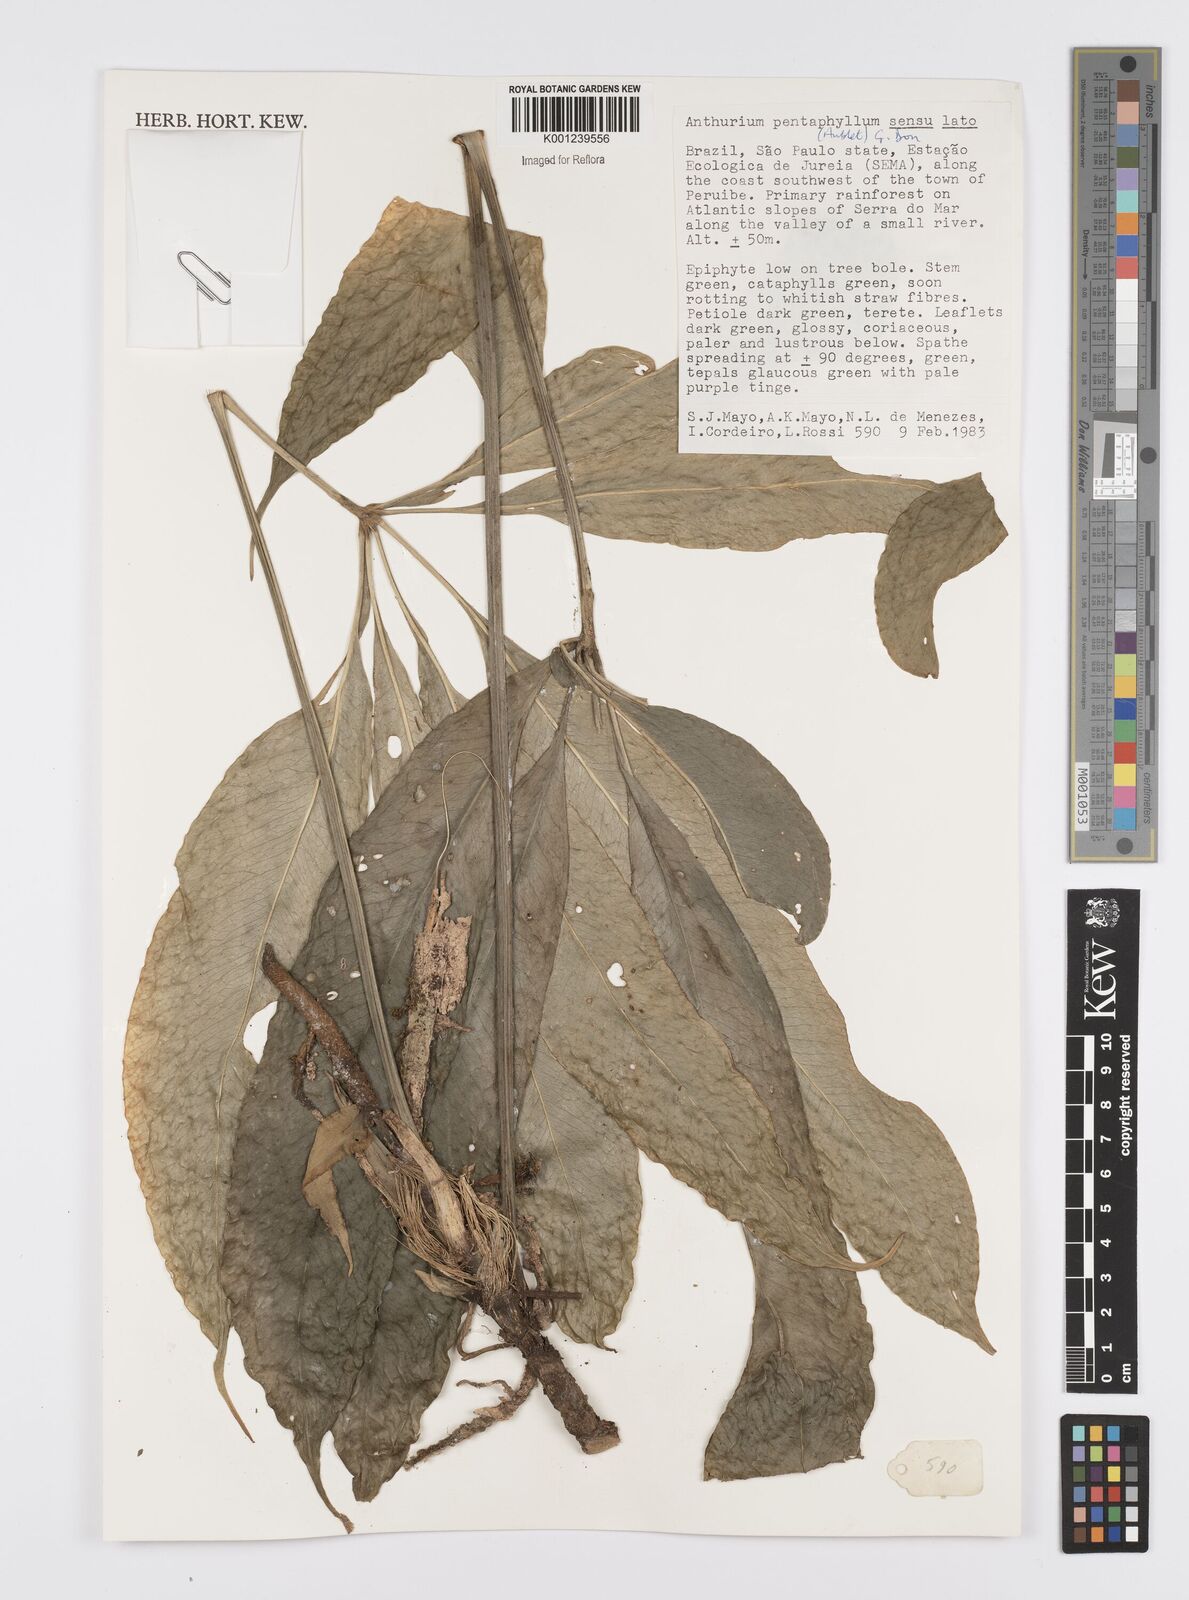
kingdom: Plantae
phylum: Tracheophyta
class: Liliopsida
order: Alismatales
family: Araceae
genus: Anthurium
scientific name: Anthurium pentaphyllum
